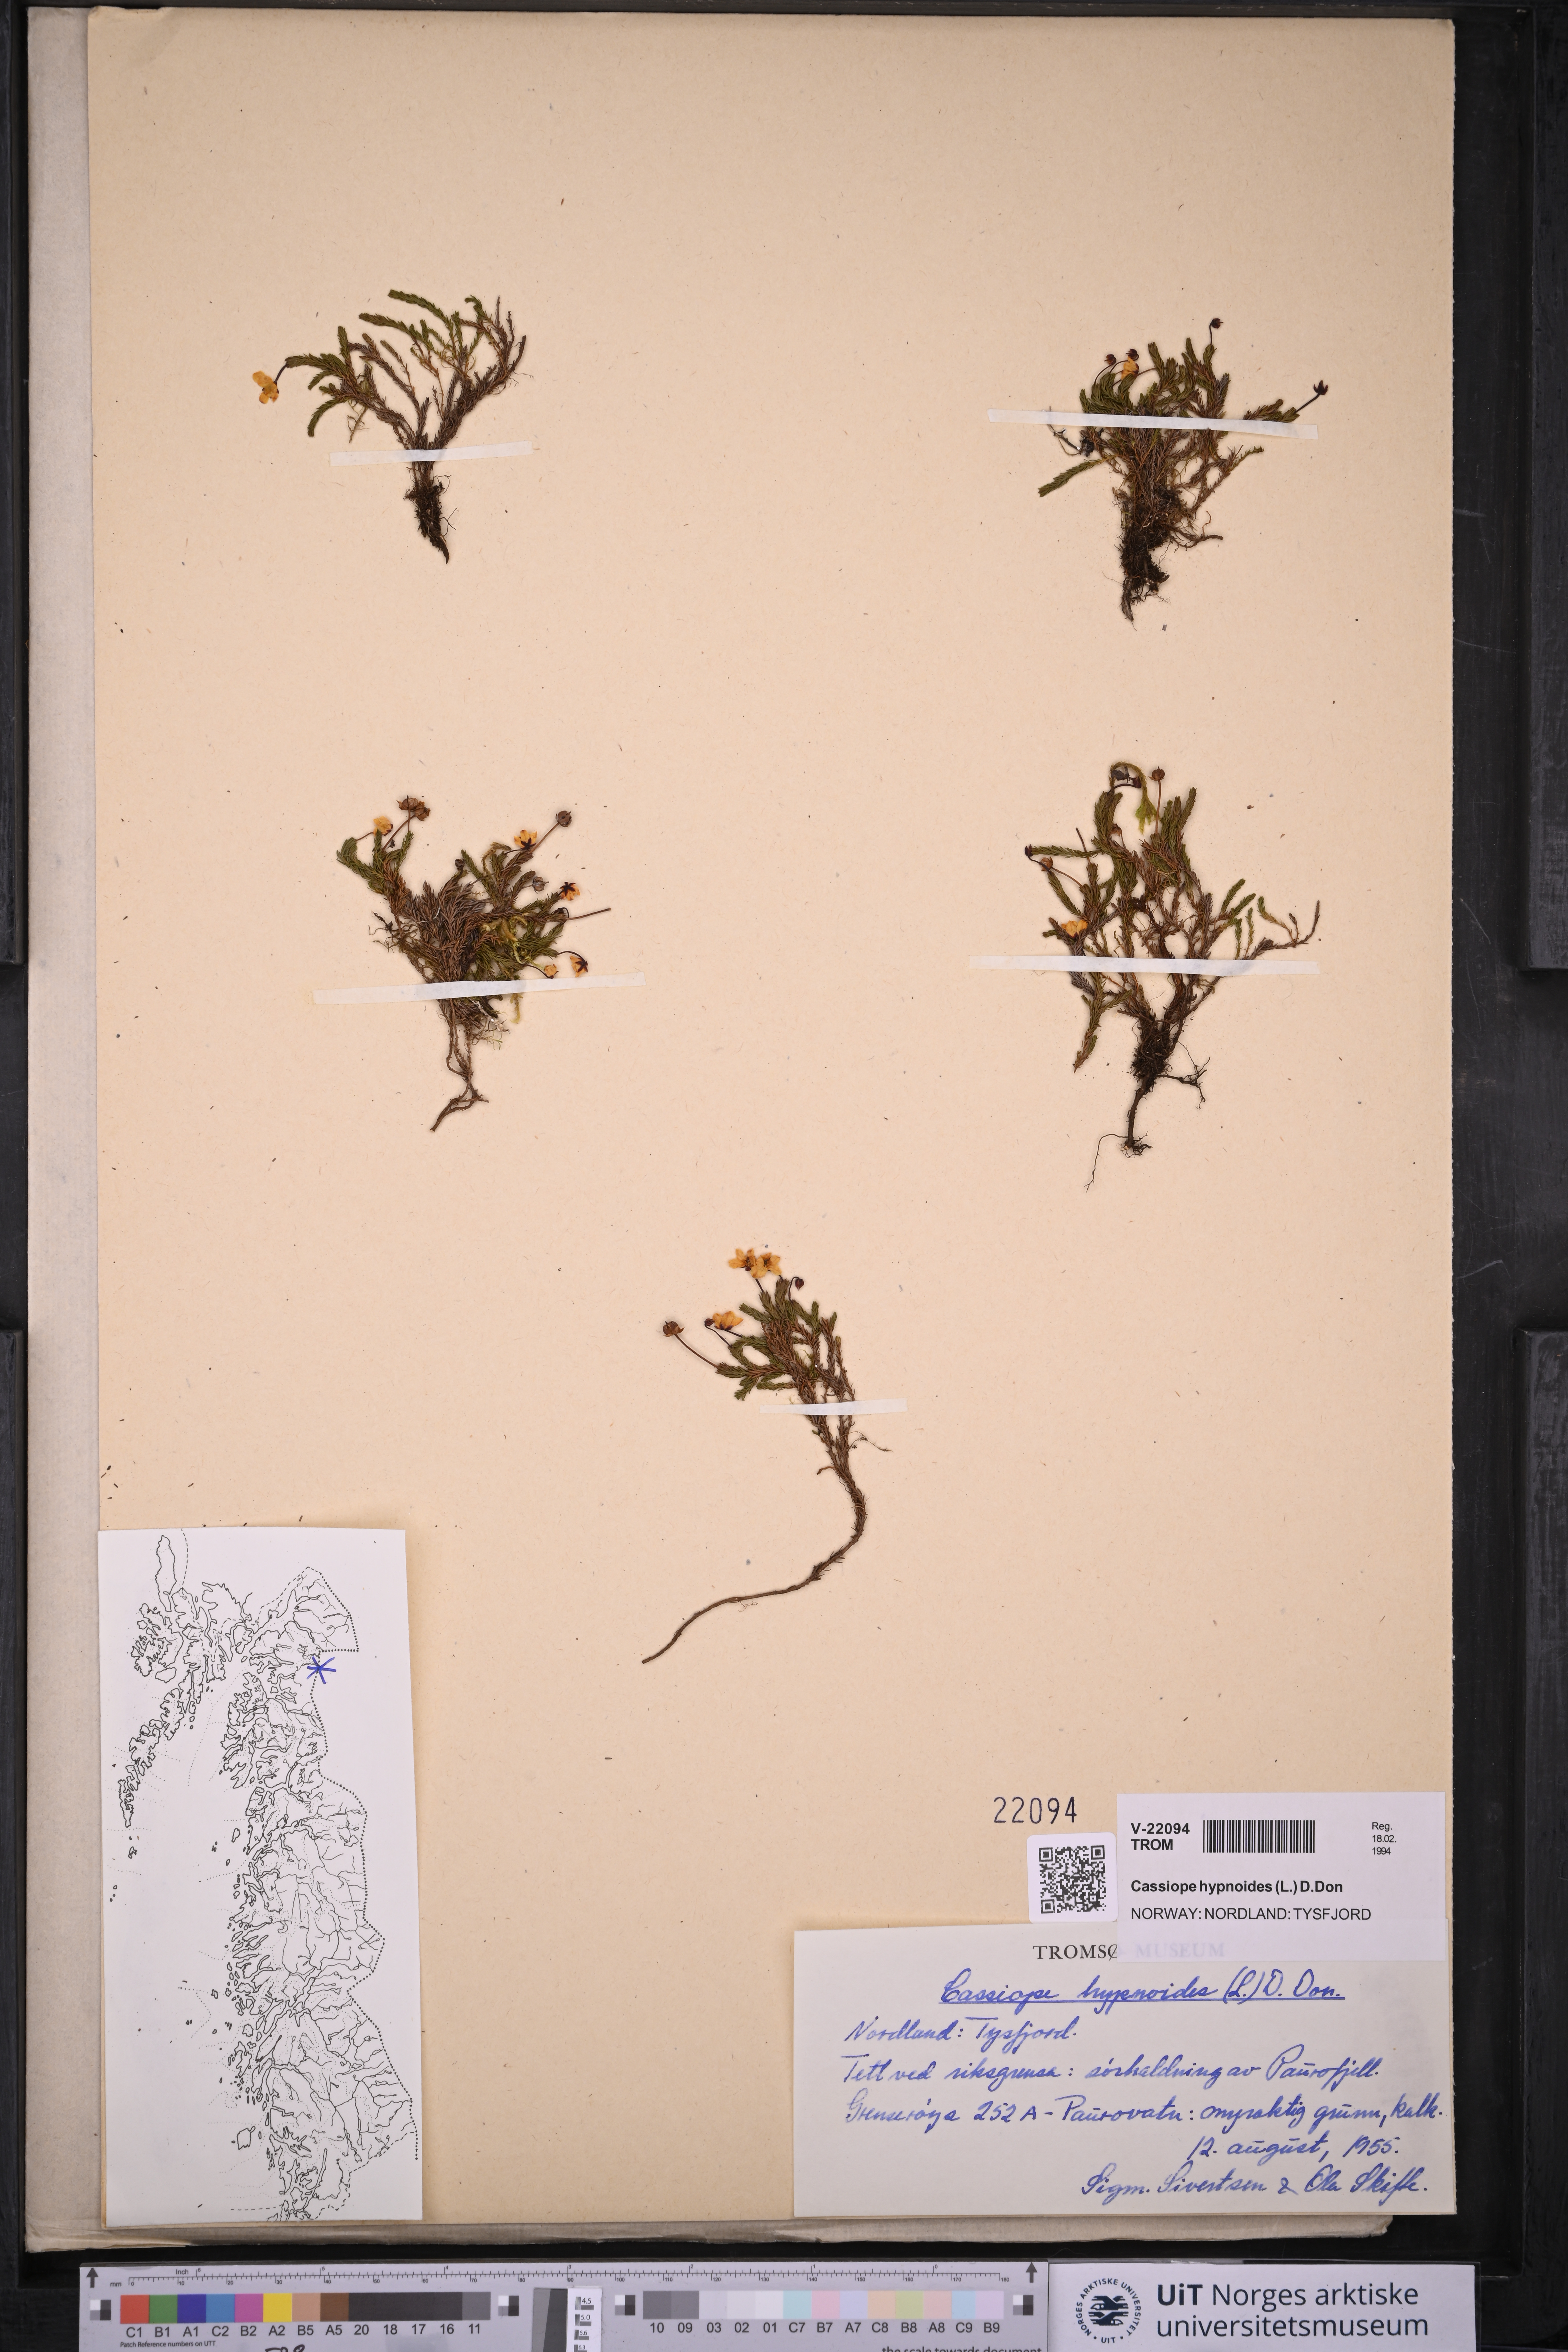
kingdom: Plantae
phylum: Tracheophyta
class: Magnoliopsida
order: Ericales
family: Ericaceae
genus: Harrimanella
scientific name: Harrimanella hypnoides
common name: Moss bell heather
